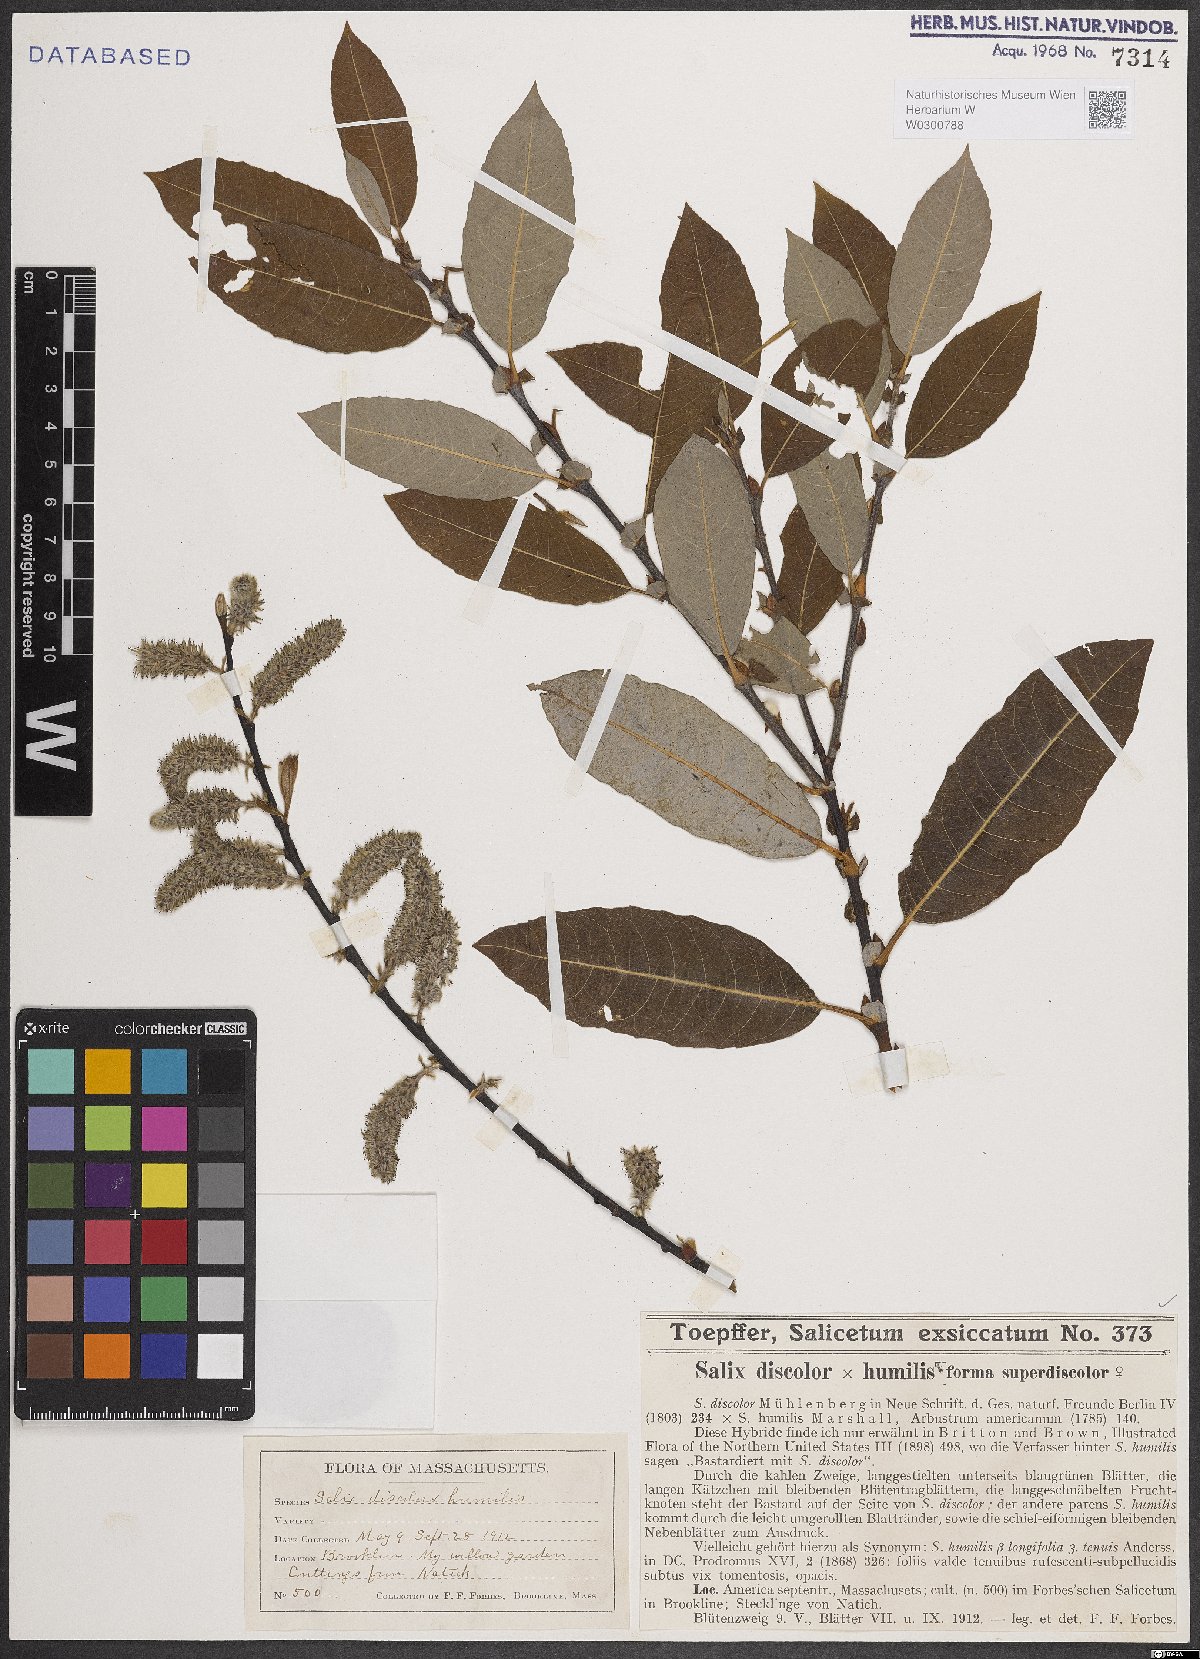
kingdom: Plantae
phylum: Tracheophyta
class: Magnoliopsida
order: Malpighiales
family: Salicaceae
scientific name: Salicaceae
